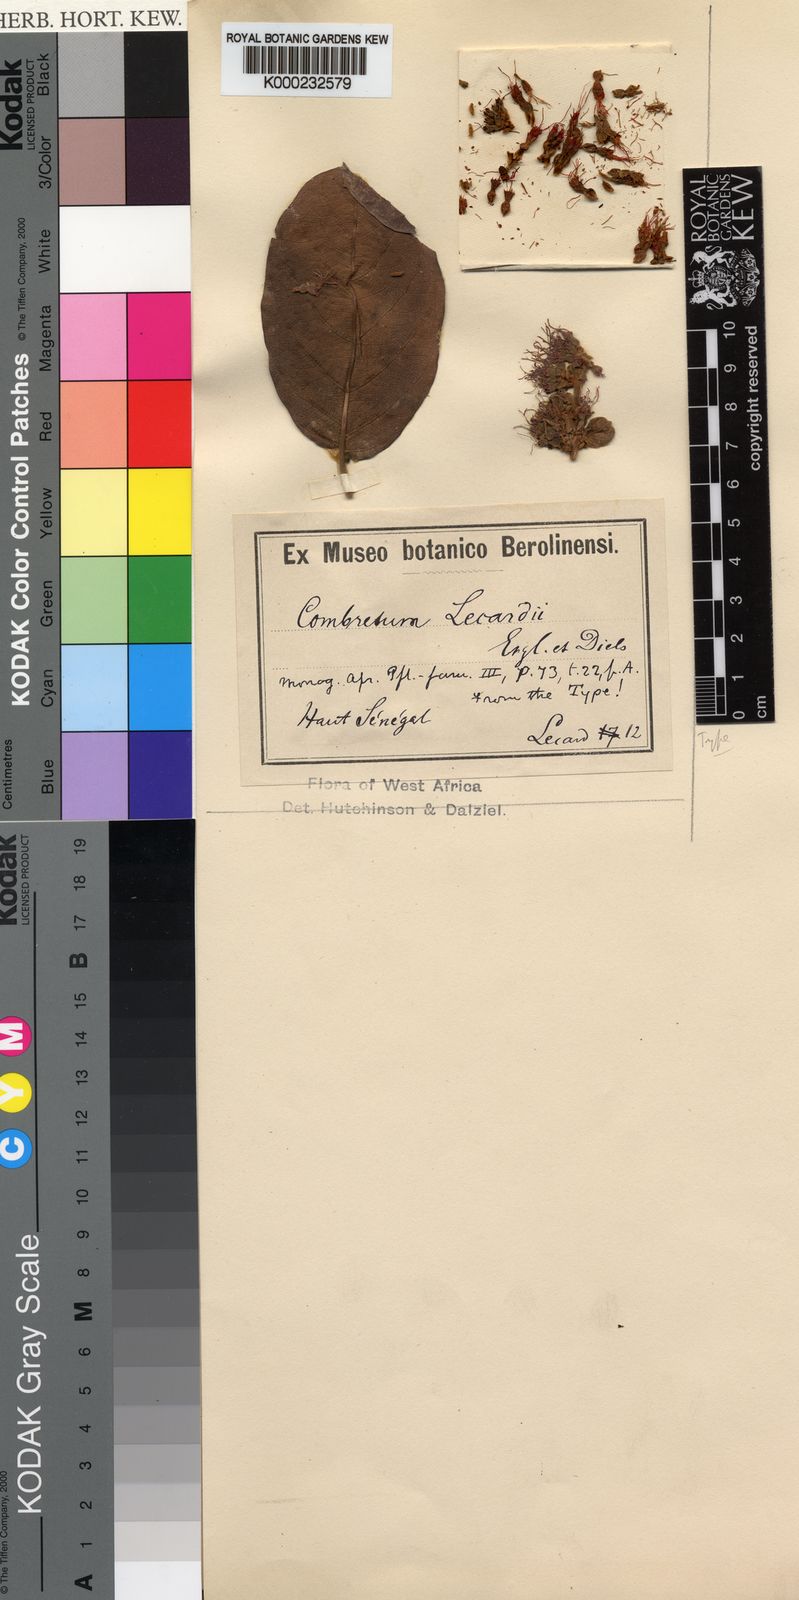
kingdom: Plantae
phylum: Tracheophyta
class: Magnoliopsida
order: Myrtales
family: Combretaceae
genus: Combretum
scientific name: Combretum lecardii
